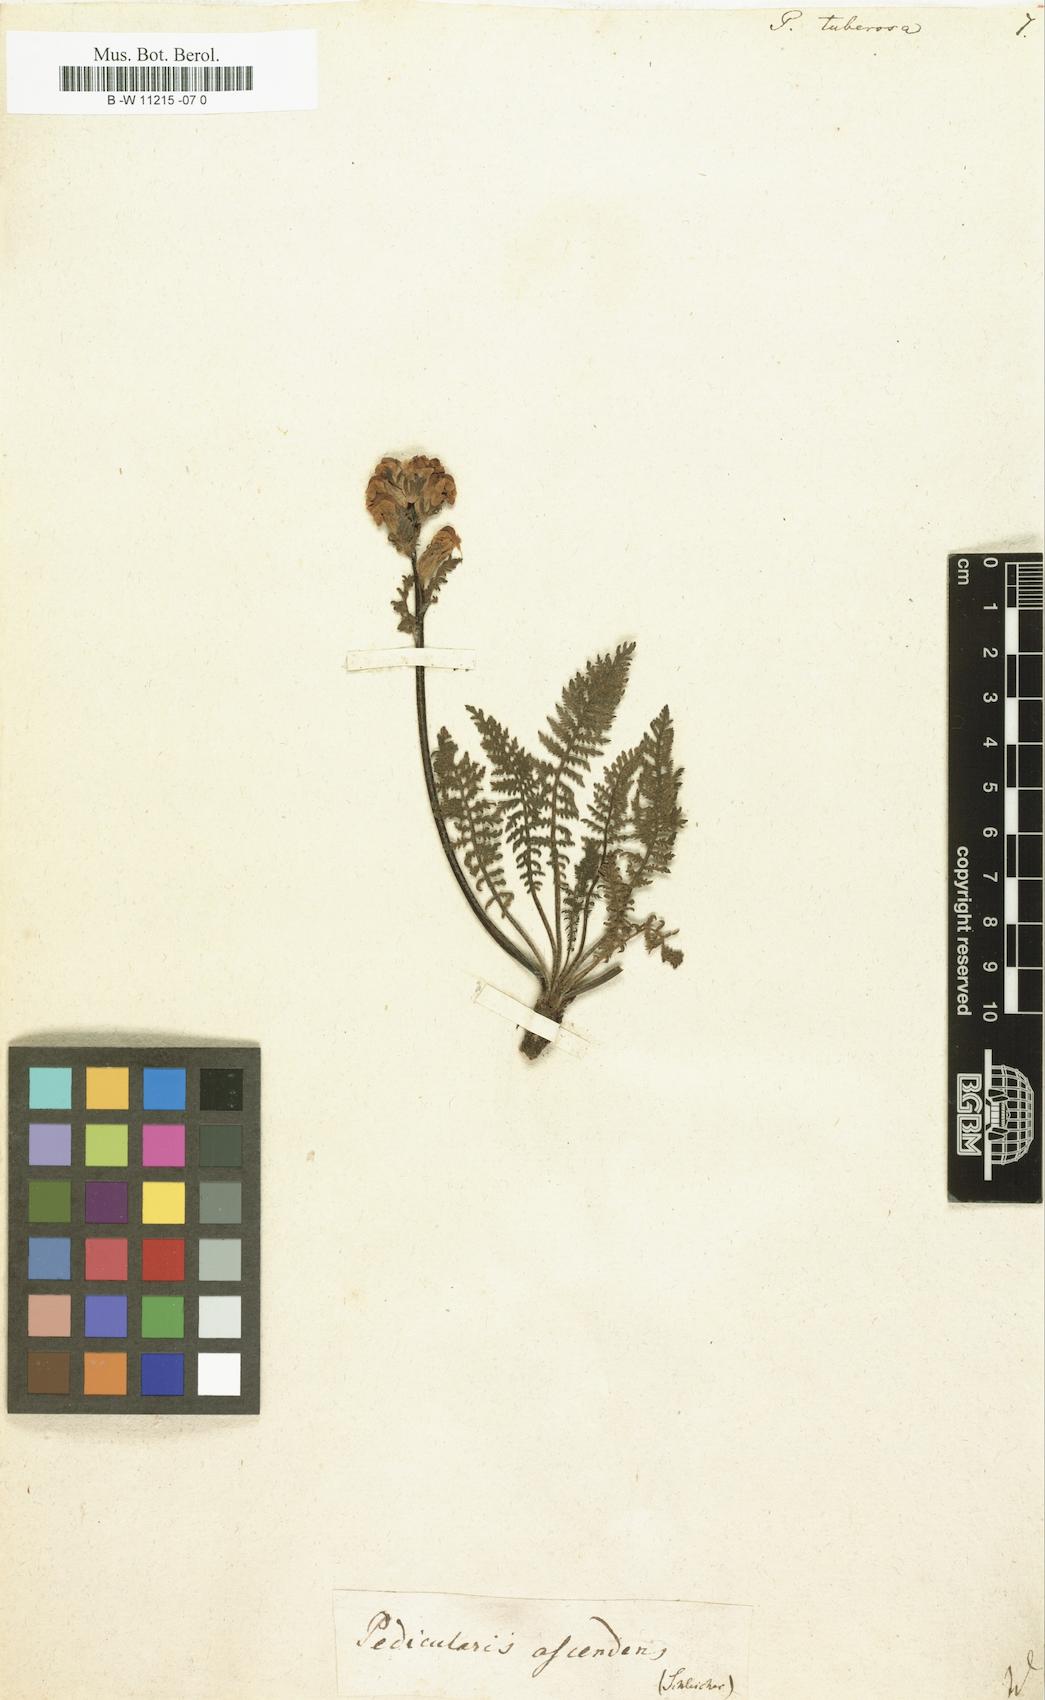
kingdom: Plantae
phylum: Tracheophyta
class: Magnoliopsida
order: Lamiales
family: Orobanchaceae
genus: Pedicularis
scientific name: Pedicularis tuberosa
